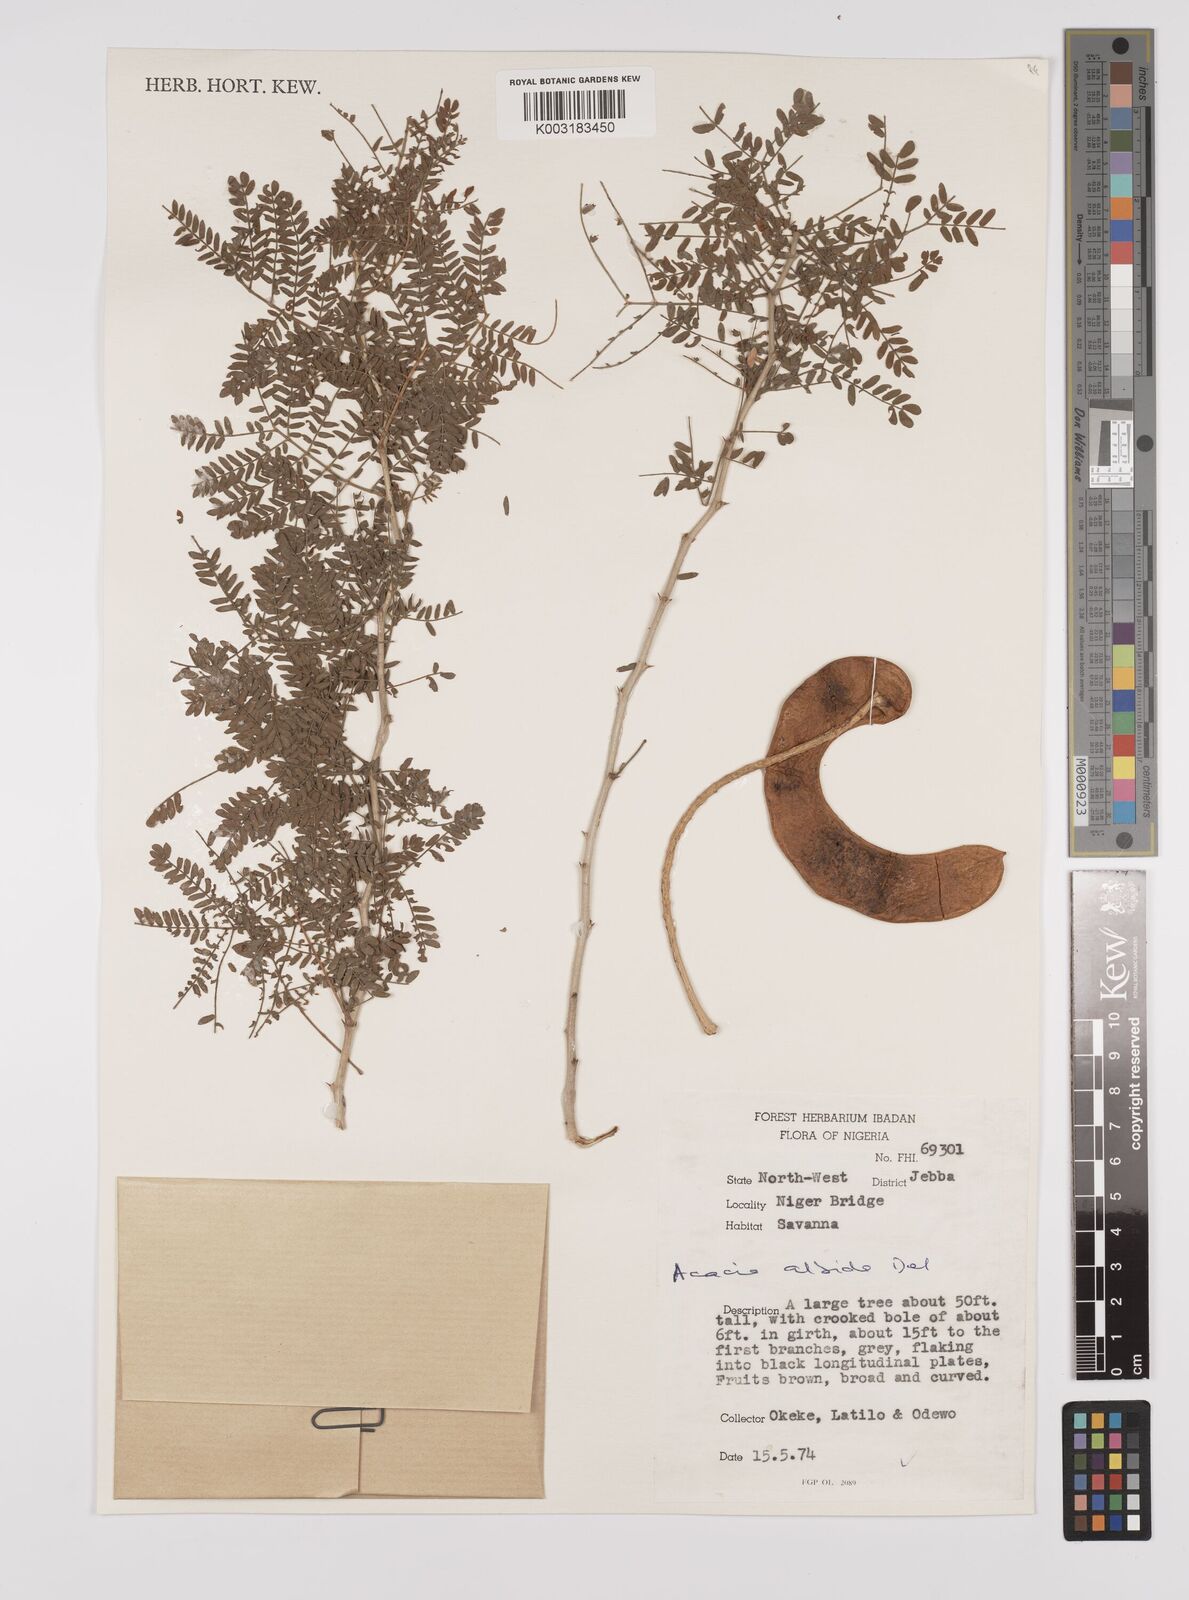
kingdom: Plantae
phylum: Tracheophyta
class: Magnoliopsida
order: Fabales
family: Fabaceae
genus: Faidherbia
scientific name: Faidherbia albida
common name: Anatree
